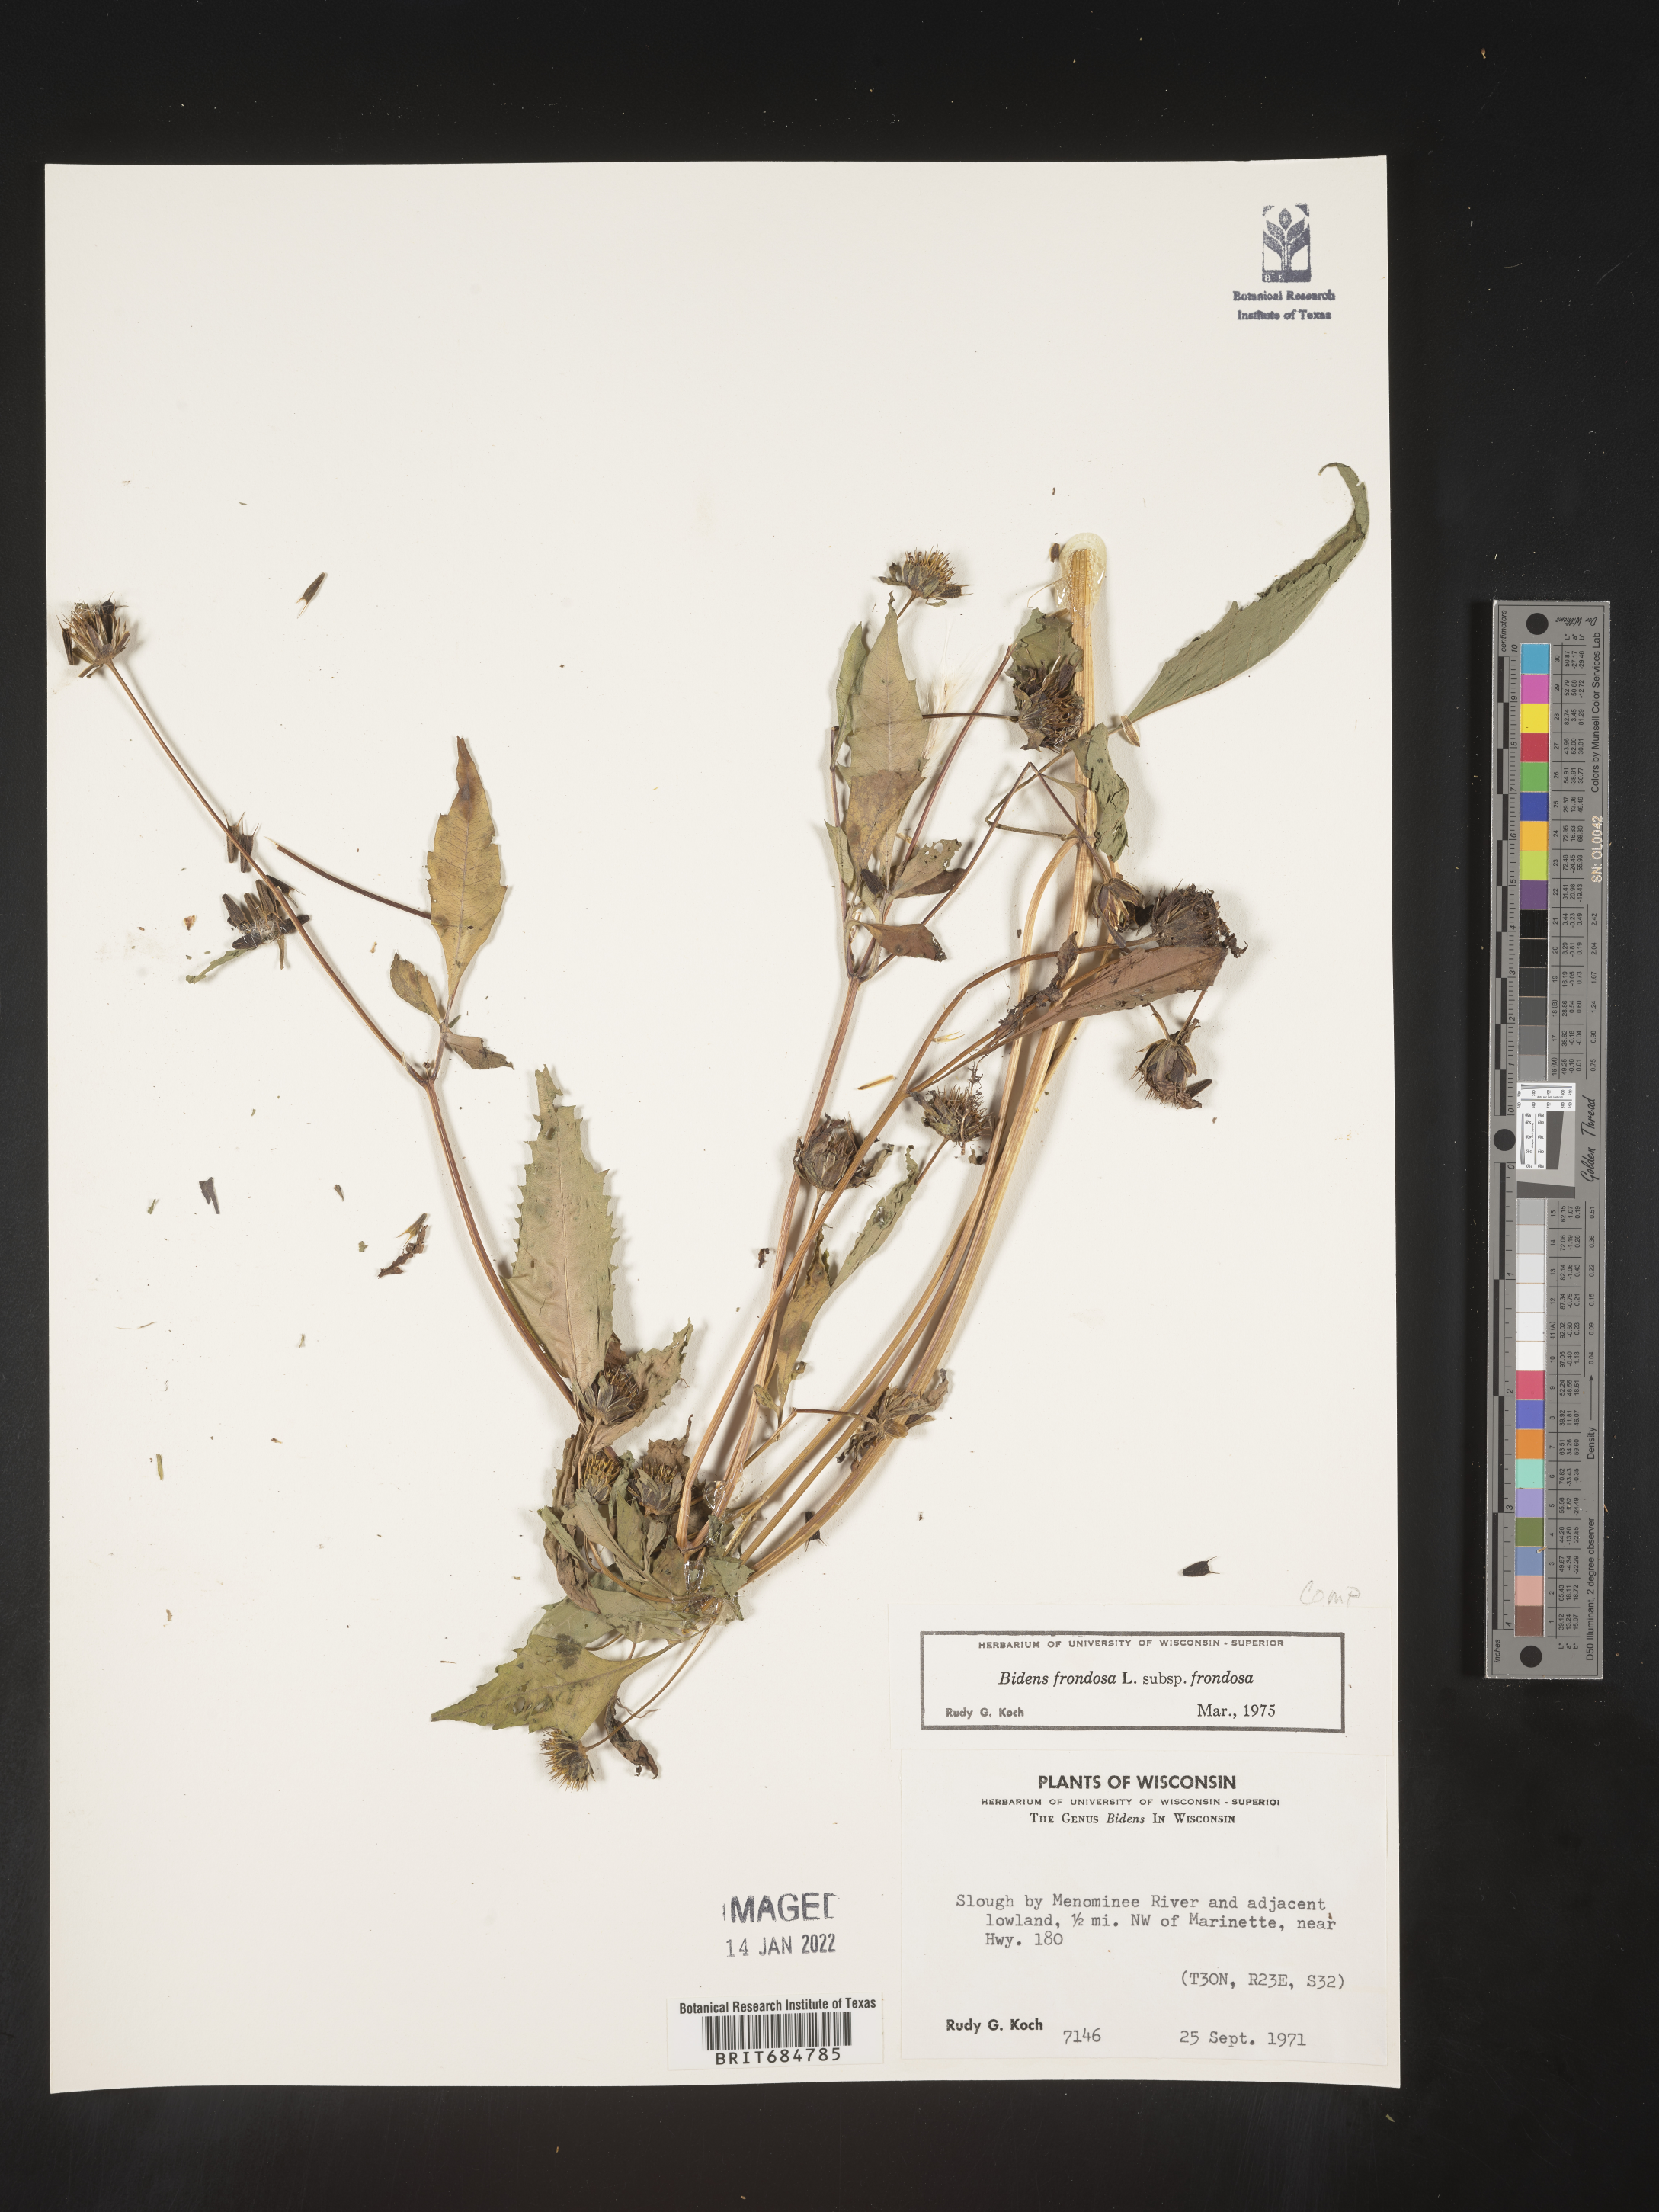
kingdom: Plantae
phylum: Tracheophyta
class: Magnoliopsida
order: Asterales
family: Asteraceae
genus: Bidens
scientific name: Bidens frondosa
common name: Beggarticks
